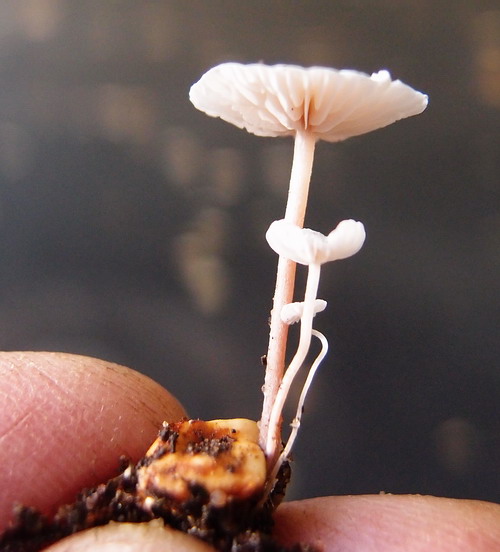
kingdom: Fungi
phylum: Basidiomycota
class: Agaricomycetes
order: Agaricales
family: Tricholomataceae
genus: Collybia
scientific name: Collybia cookei
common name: gulknoldet lighat
